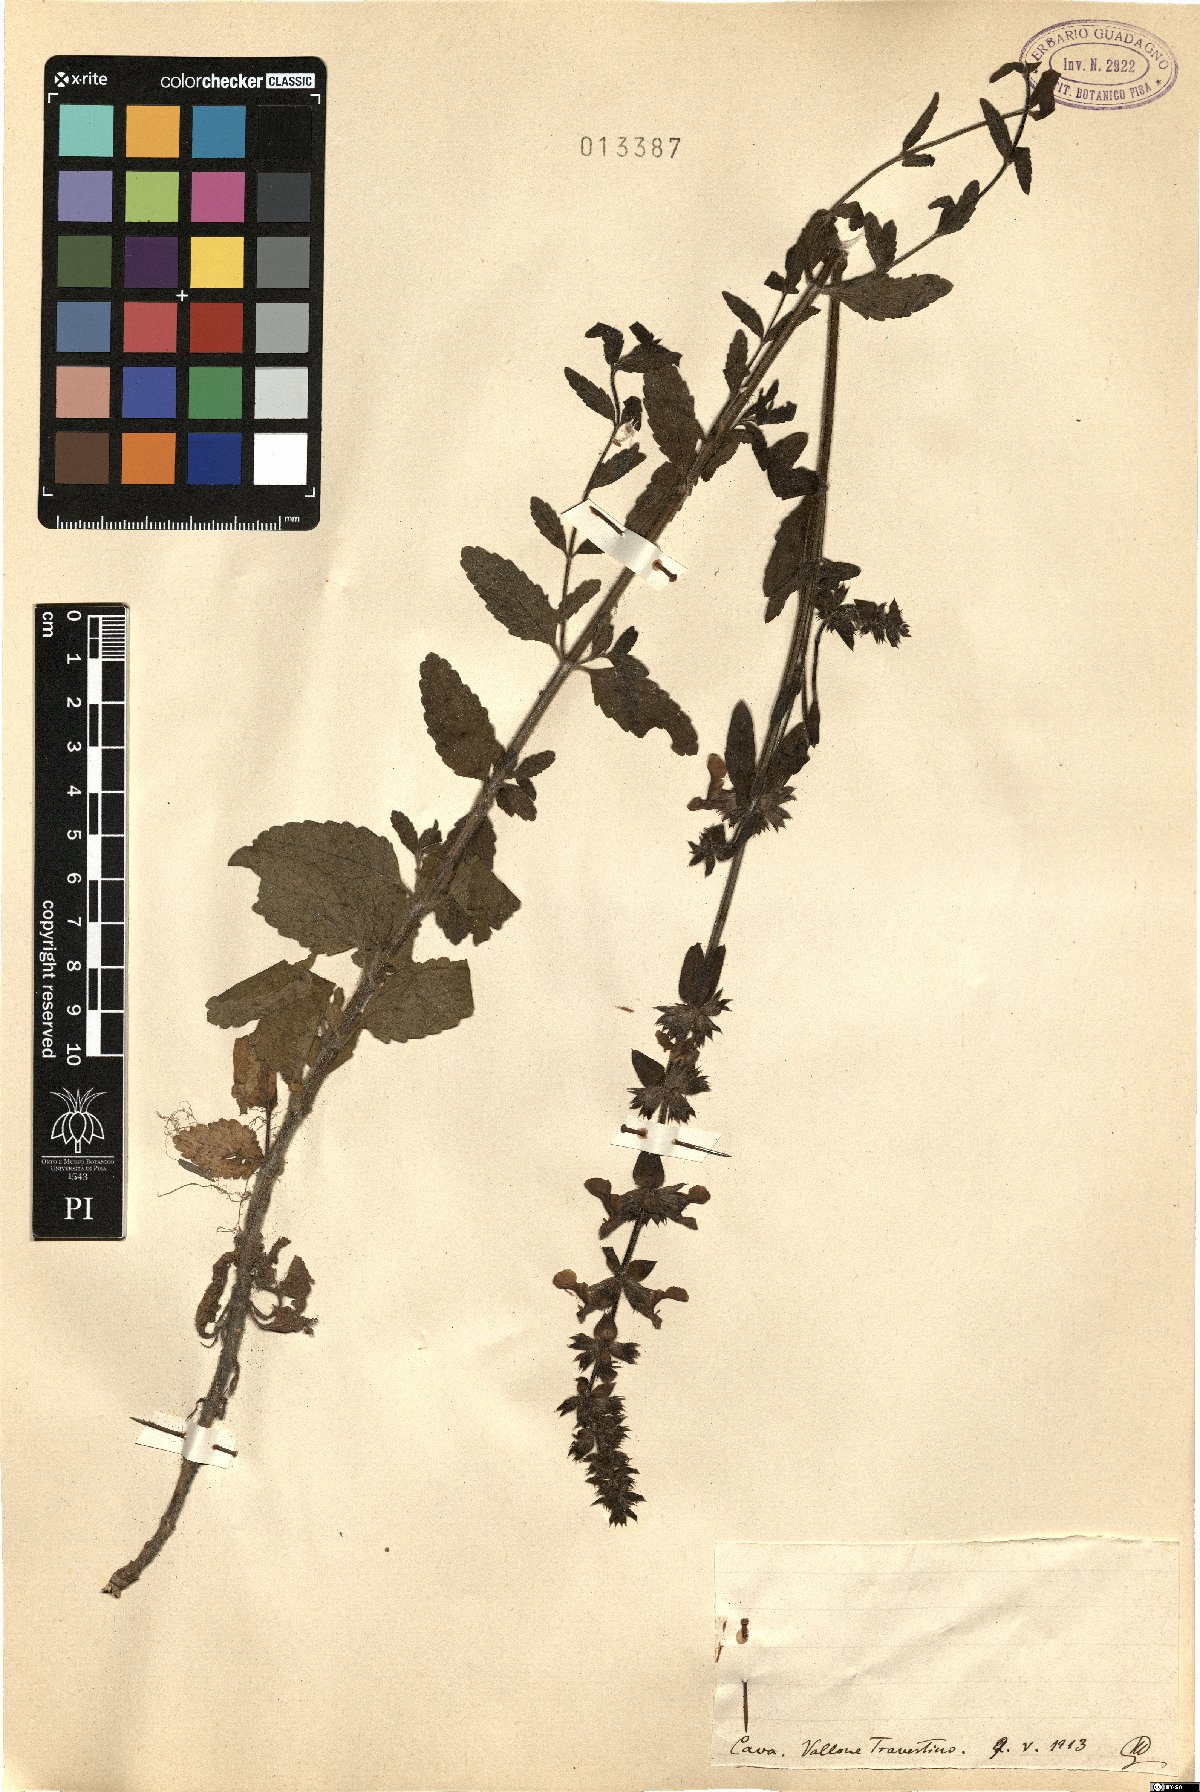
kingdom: Plantae
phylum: Tracheophyta
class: Magnoliopsida
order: Lamiales
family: Lamiaceae
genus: Stachys
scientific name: Stachys
